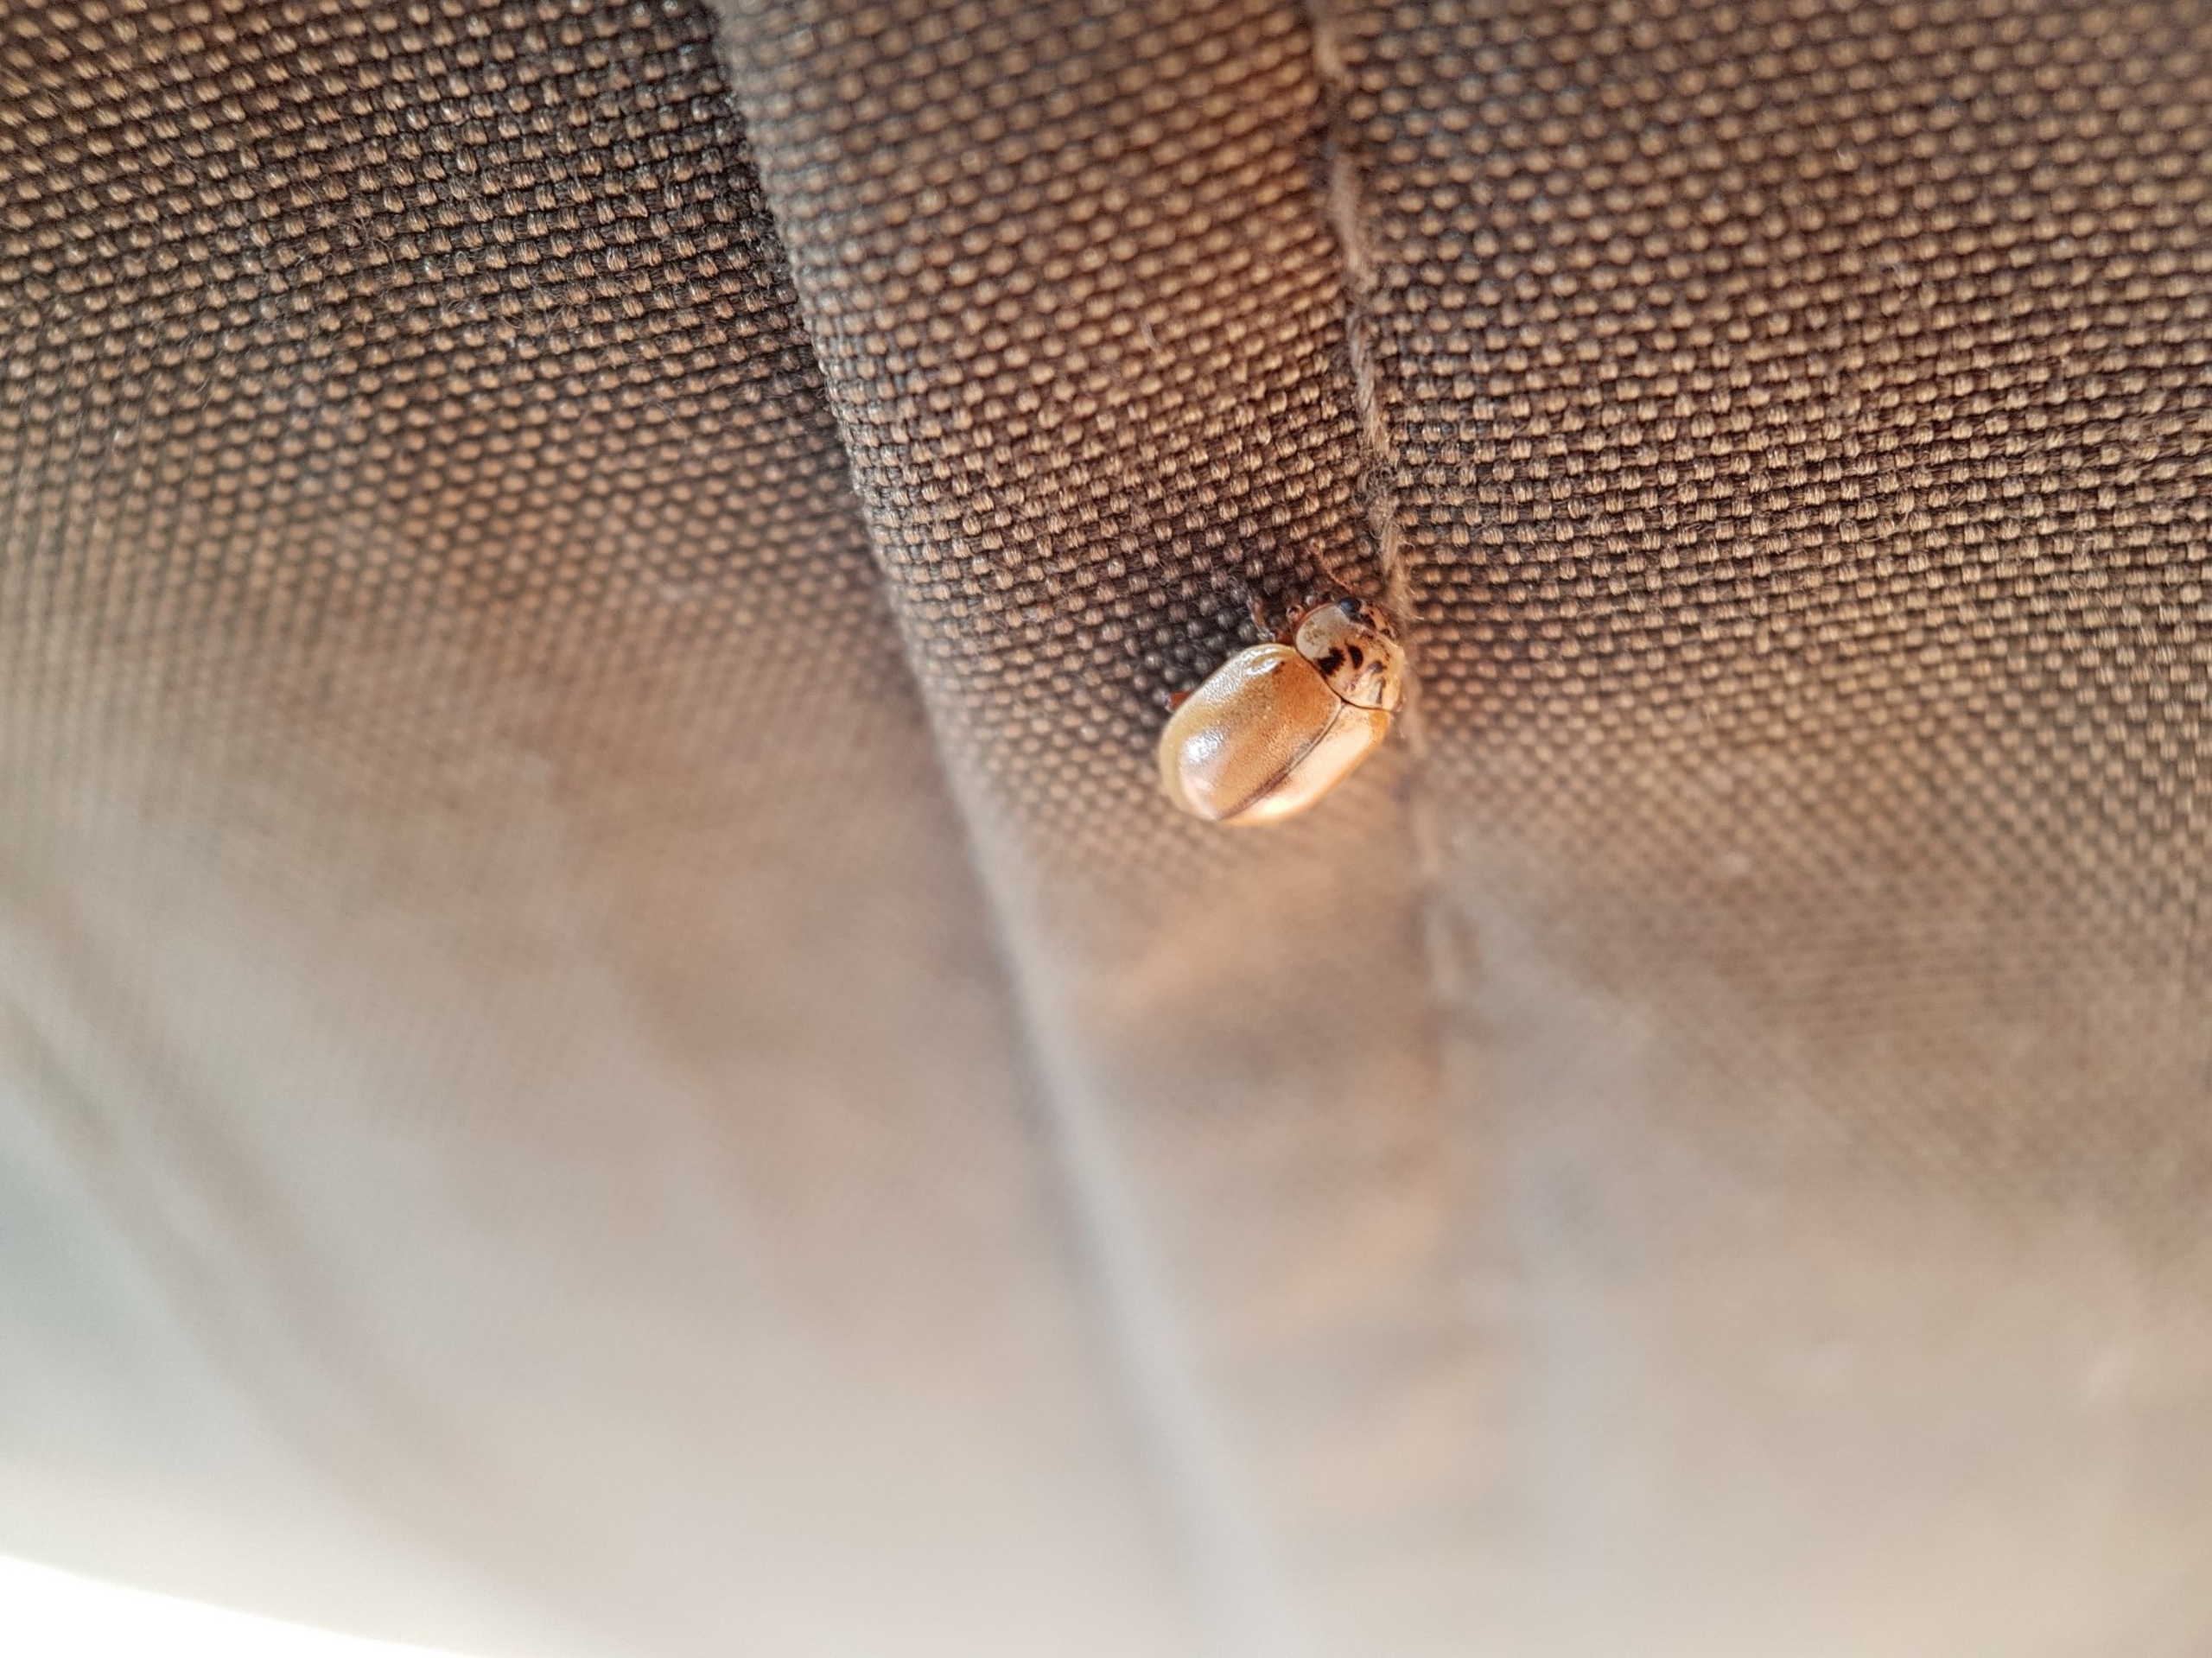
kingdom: Animalia
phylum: Arthropoda
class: Insecta
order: Coleoptera
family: Coccinellidae
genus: Aphidecta
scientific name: Aphidecta obliterata
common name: Uplettet mariehøne
